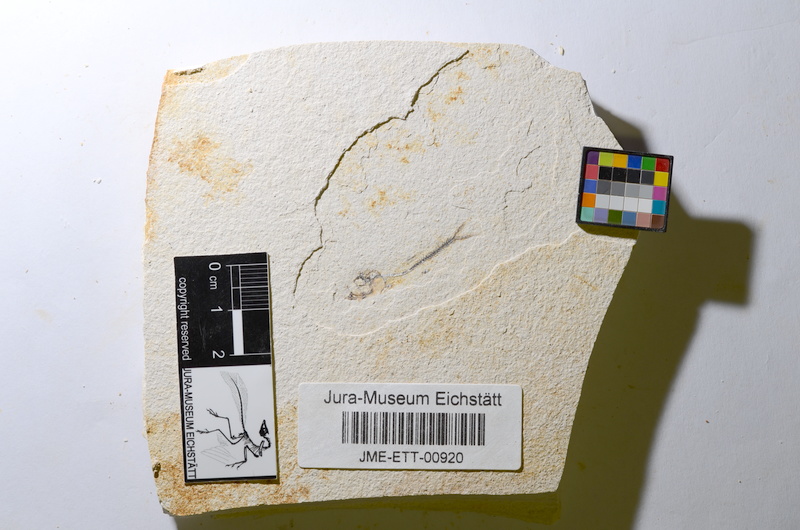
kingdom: Animalia
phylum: Chordata
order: Salmoniformes
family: Orthogonikleithridae
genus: Orthogonikleithrus
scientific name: Orthogonikleithrus hoelli
